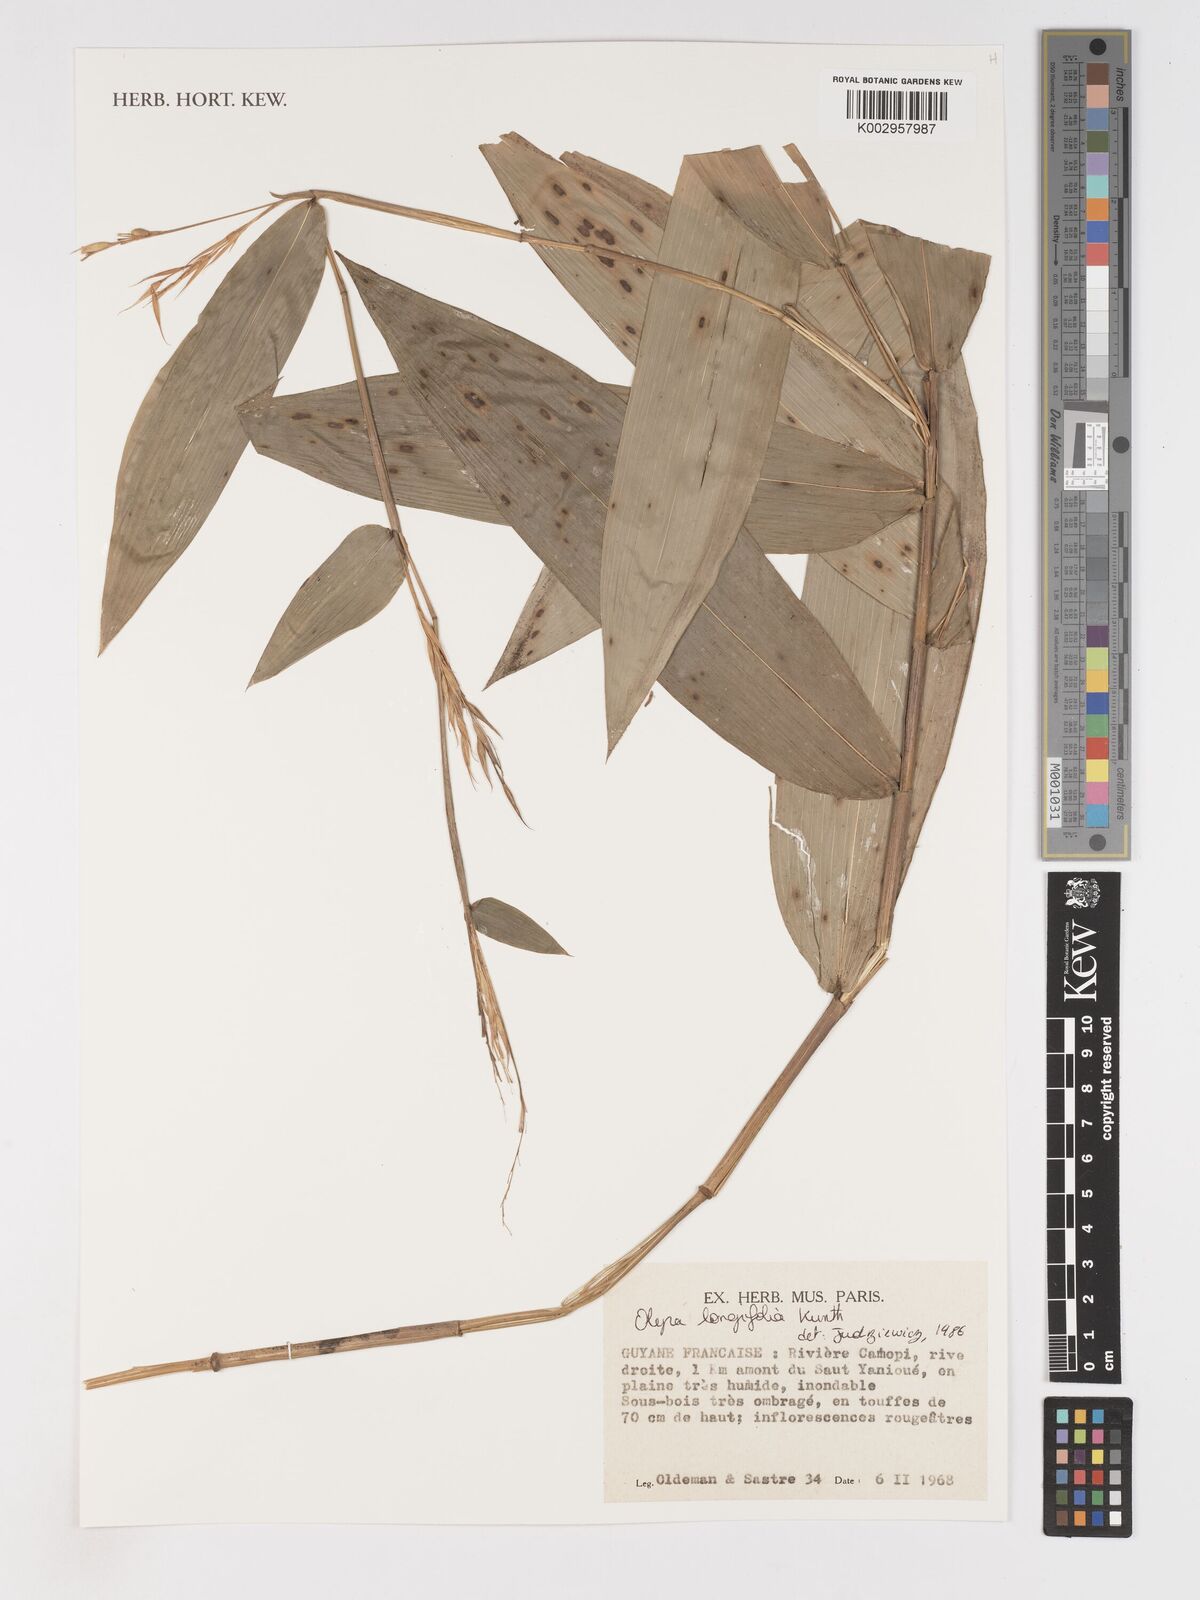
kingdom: Plantae
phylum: Tracheophyta
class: Liliopsida
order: Poales
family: Poaceae
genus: Olyra
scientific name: Olyra longifolia
